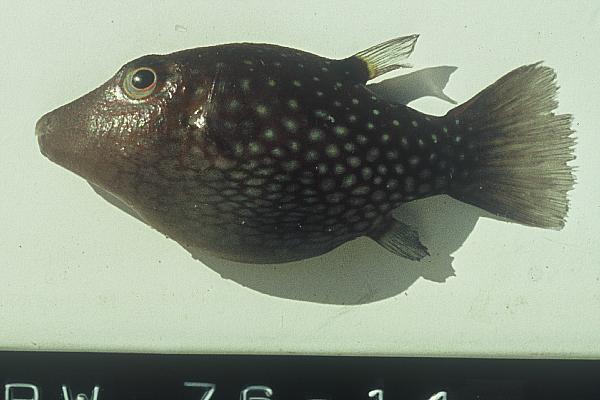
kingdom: Animalia
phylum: Chordata
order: Tetraodontiformes
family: Tetraodontidae
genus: Canthigaster
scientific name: Canthigaster janthinoptera
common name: Honeycomb toby
